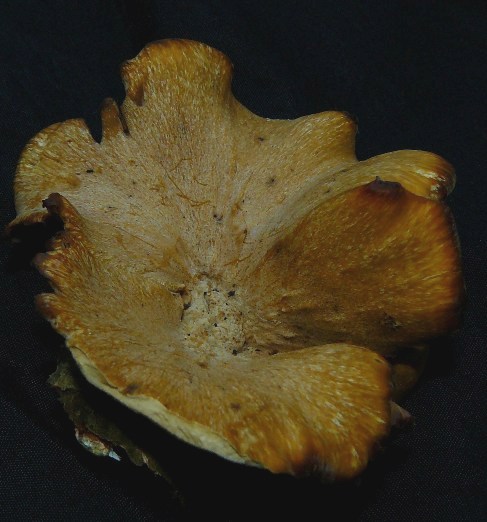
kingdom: Fungi
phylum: Basidiomycota
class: Agaricomycetes
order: Polyporales
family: Polyporaceae
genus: Cerioporus
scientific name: Cerioporus varius
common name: foranderlig stilkporesvamp
